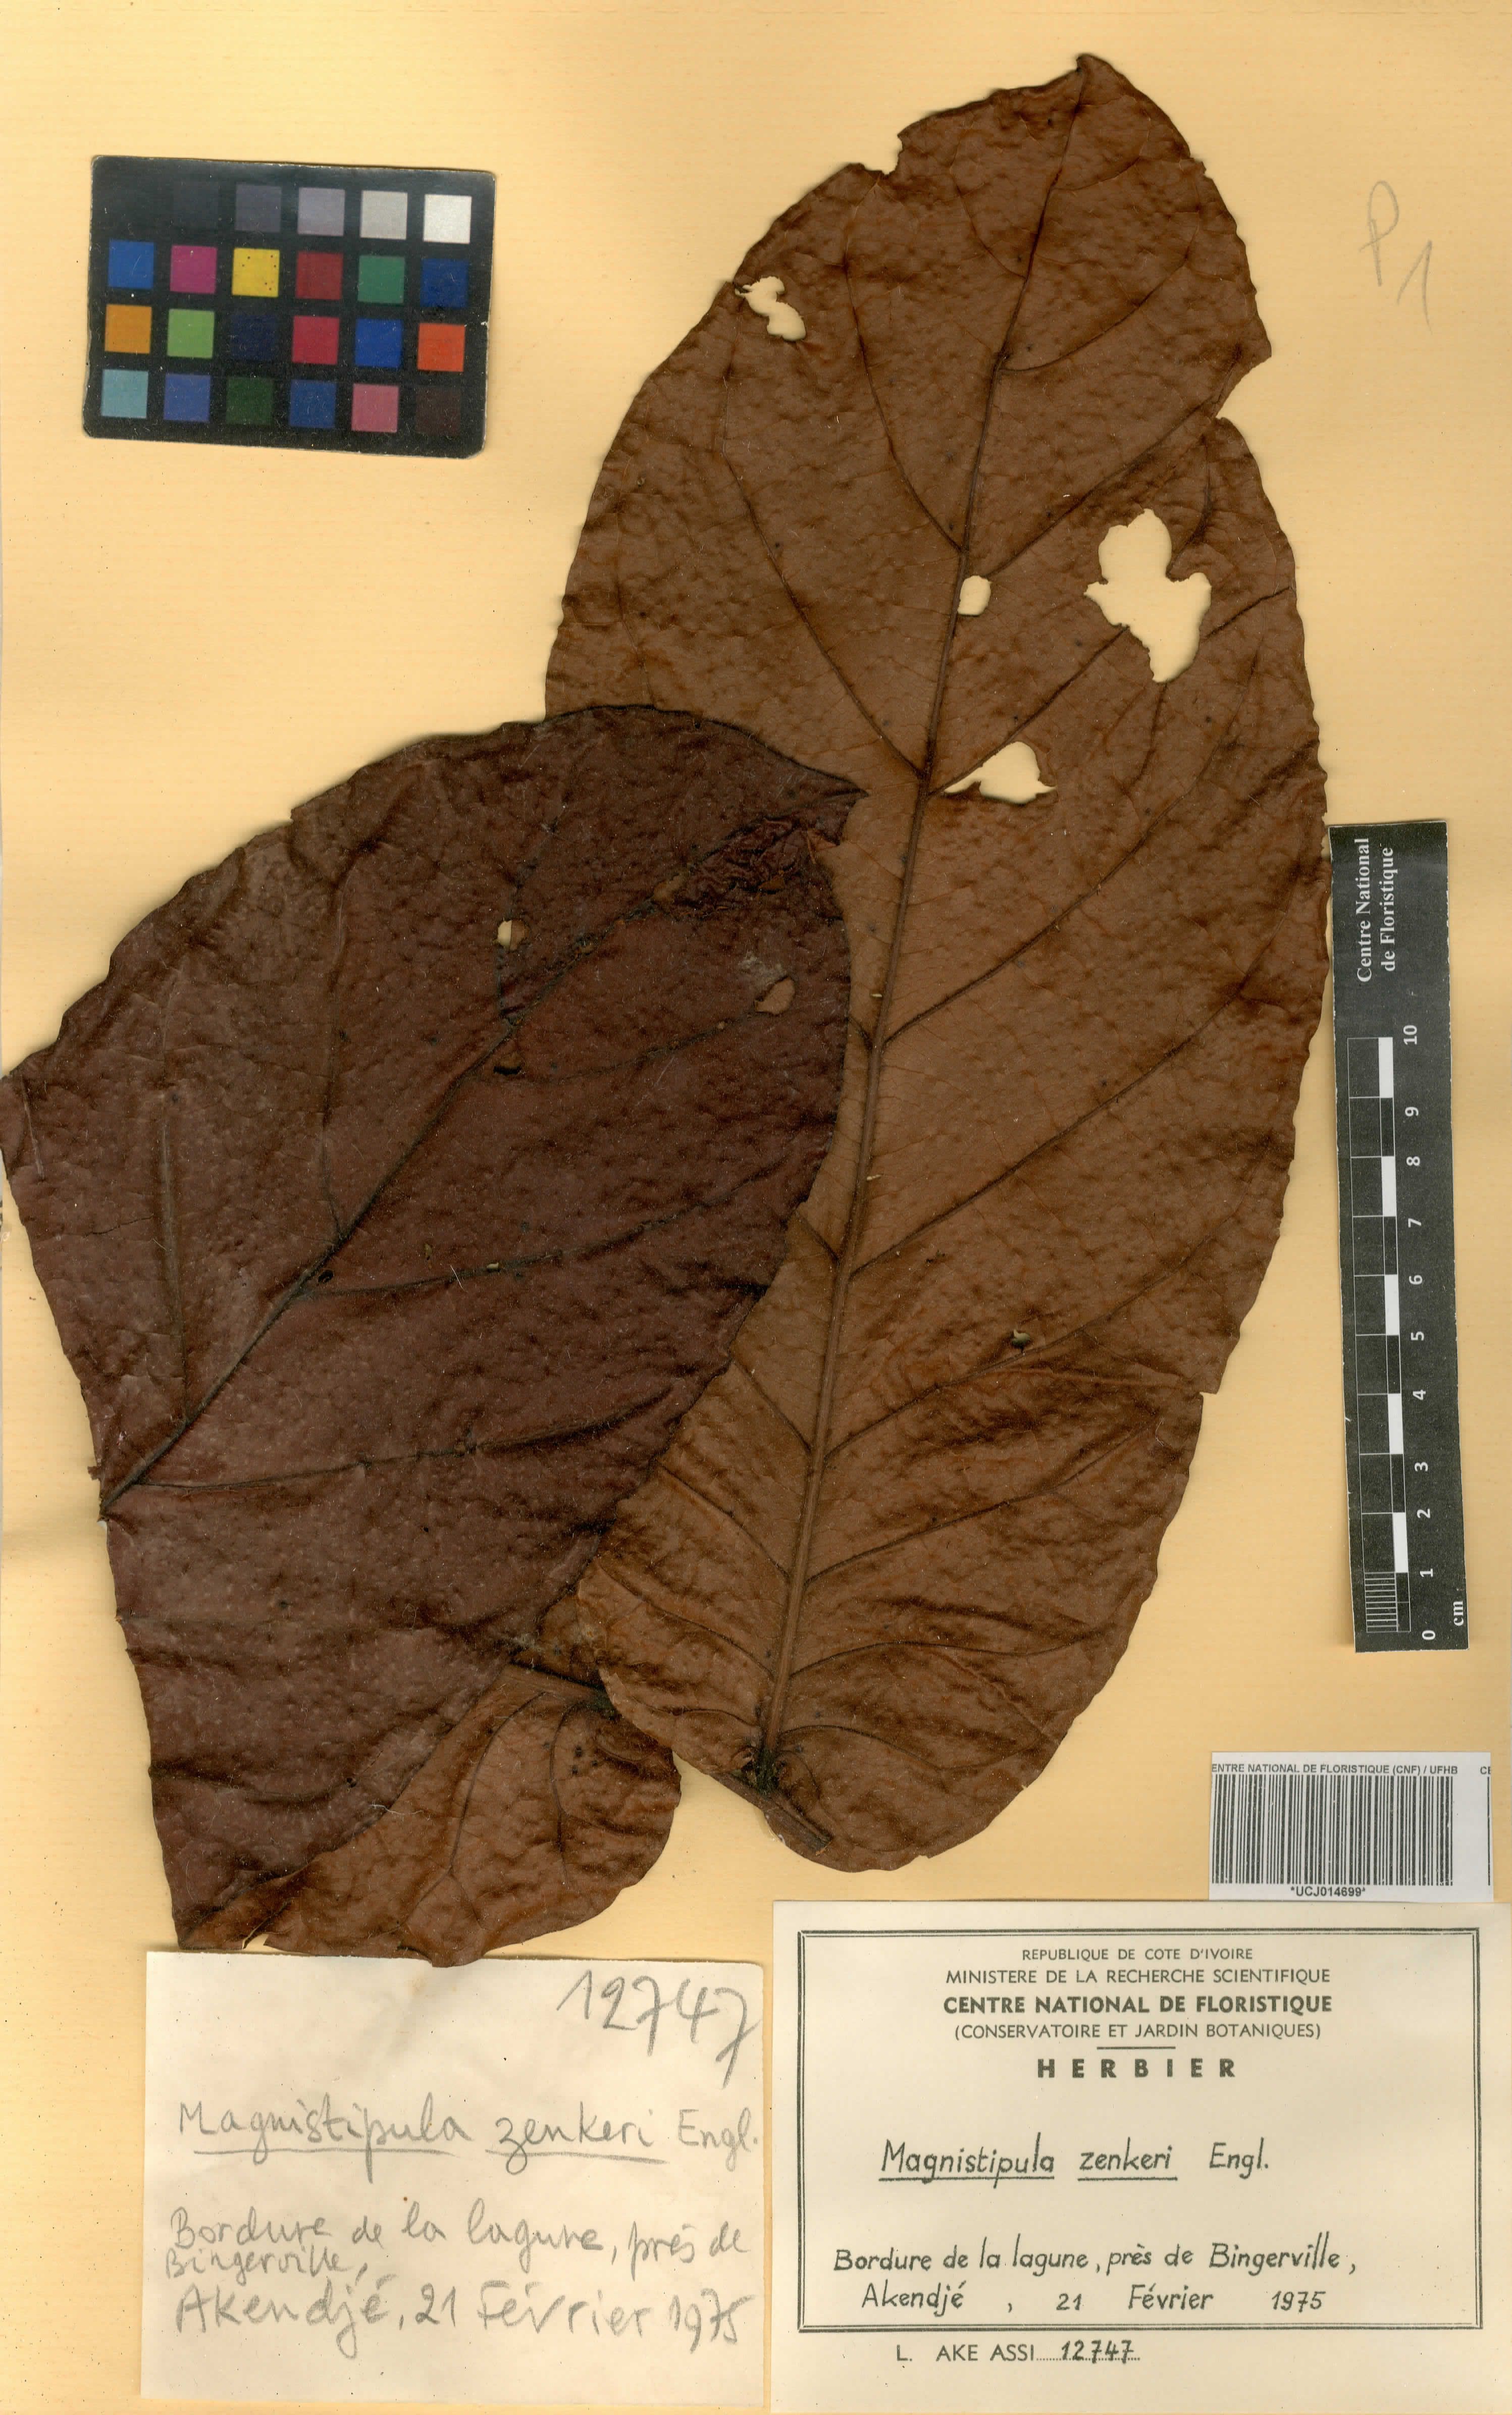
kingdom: Plantae
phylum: Tracheophyta
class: Magnoliopsida
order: Malpighiales
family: Chrysobalanaceae
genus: Magnistipula
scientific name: Magnistipula zenkeri
